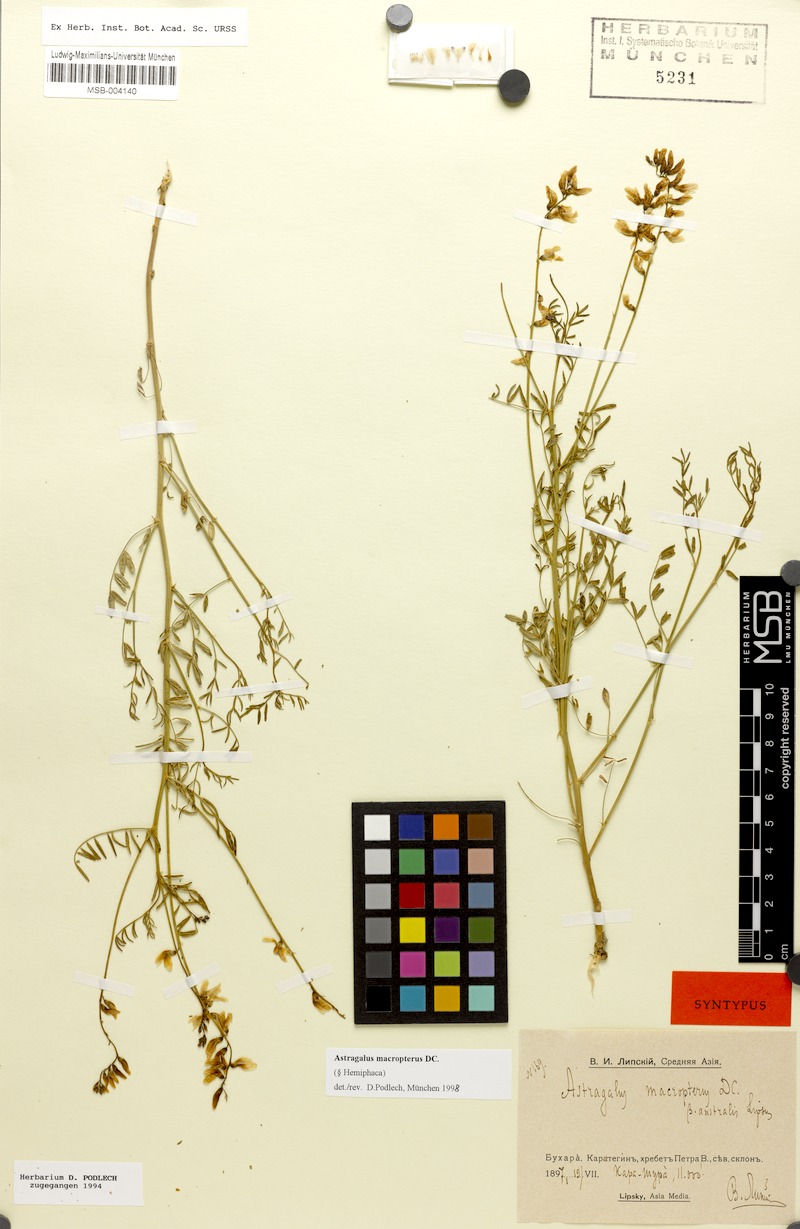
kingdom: Plantae
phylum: Tracheophyta
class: Magnoliopsida
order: Fabales
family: Fabaceae
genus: Astragalus
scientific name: Astragalus leptostachys
